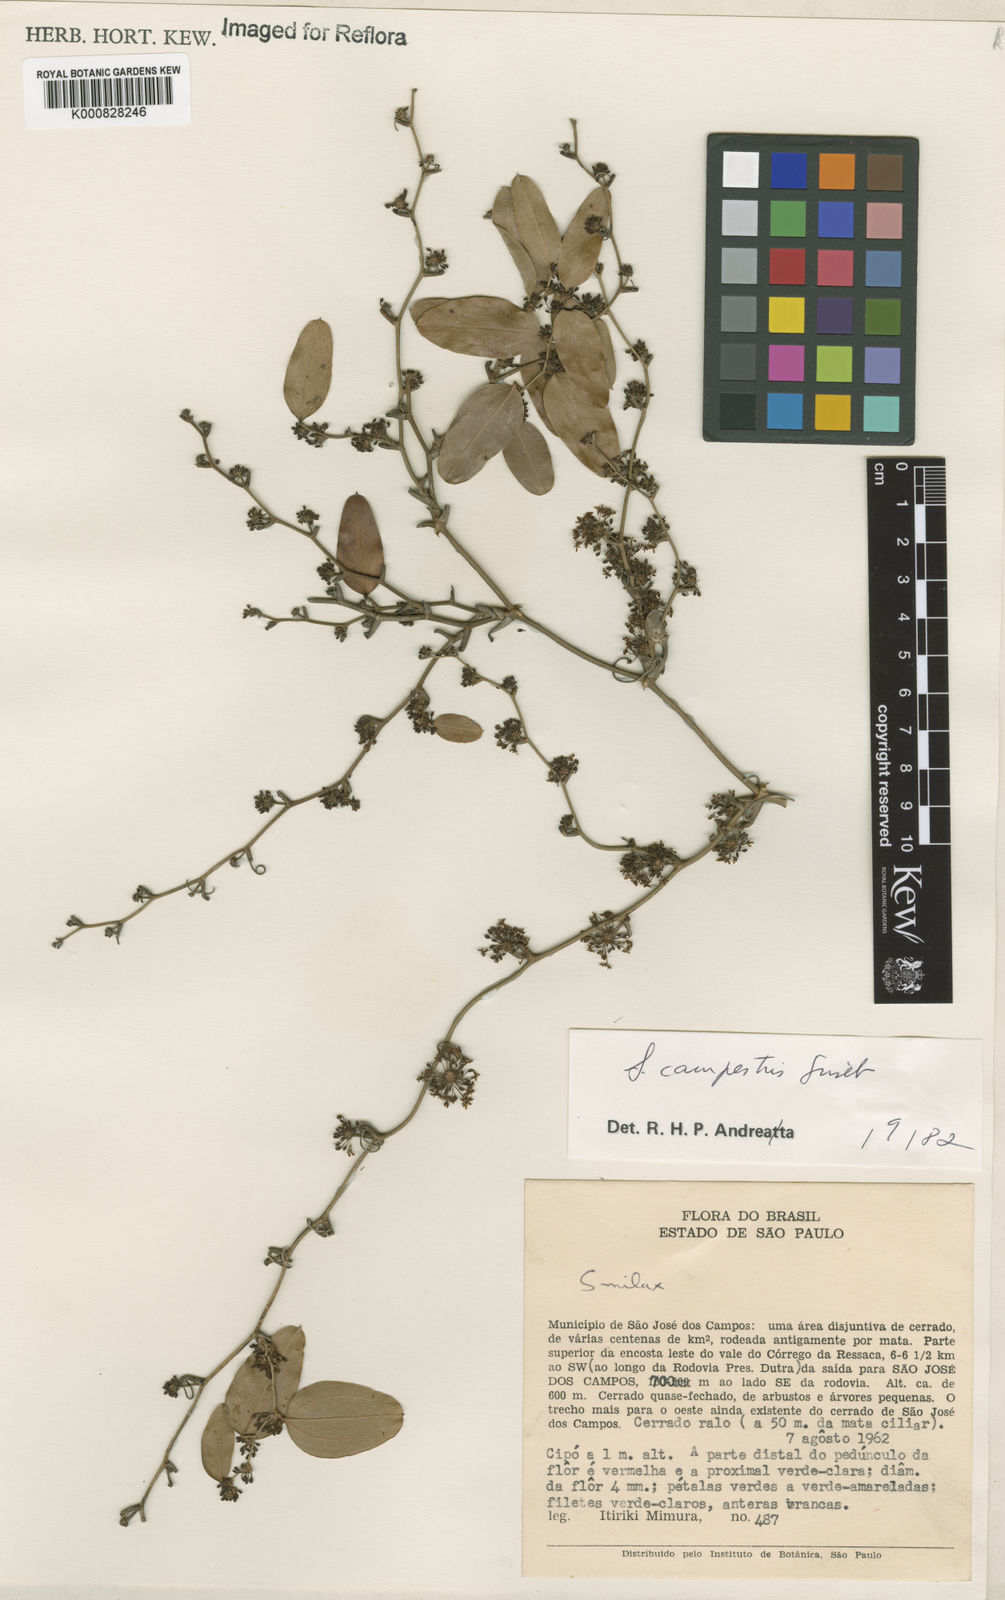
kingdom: Plantae
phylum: Tracheophyta
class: Liliopsida
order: Liliales
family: Smilacaceae
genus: Smilax
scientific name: Smilax campestris
